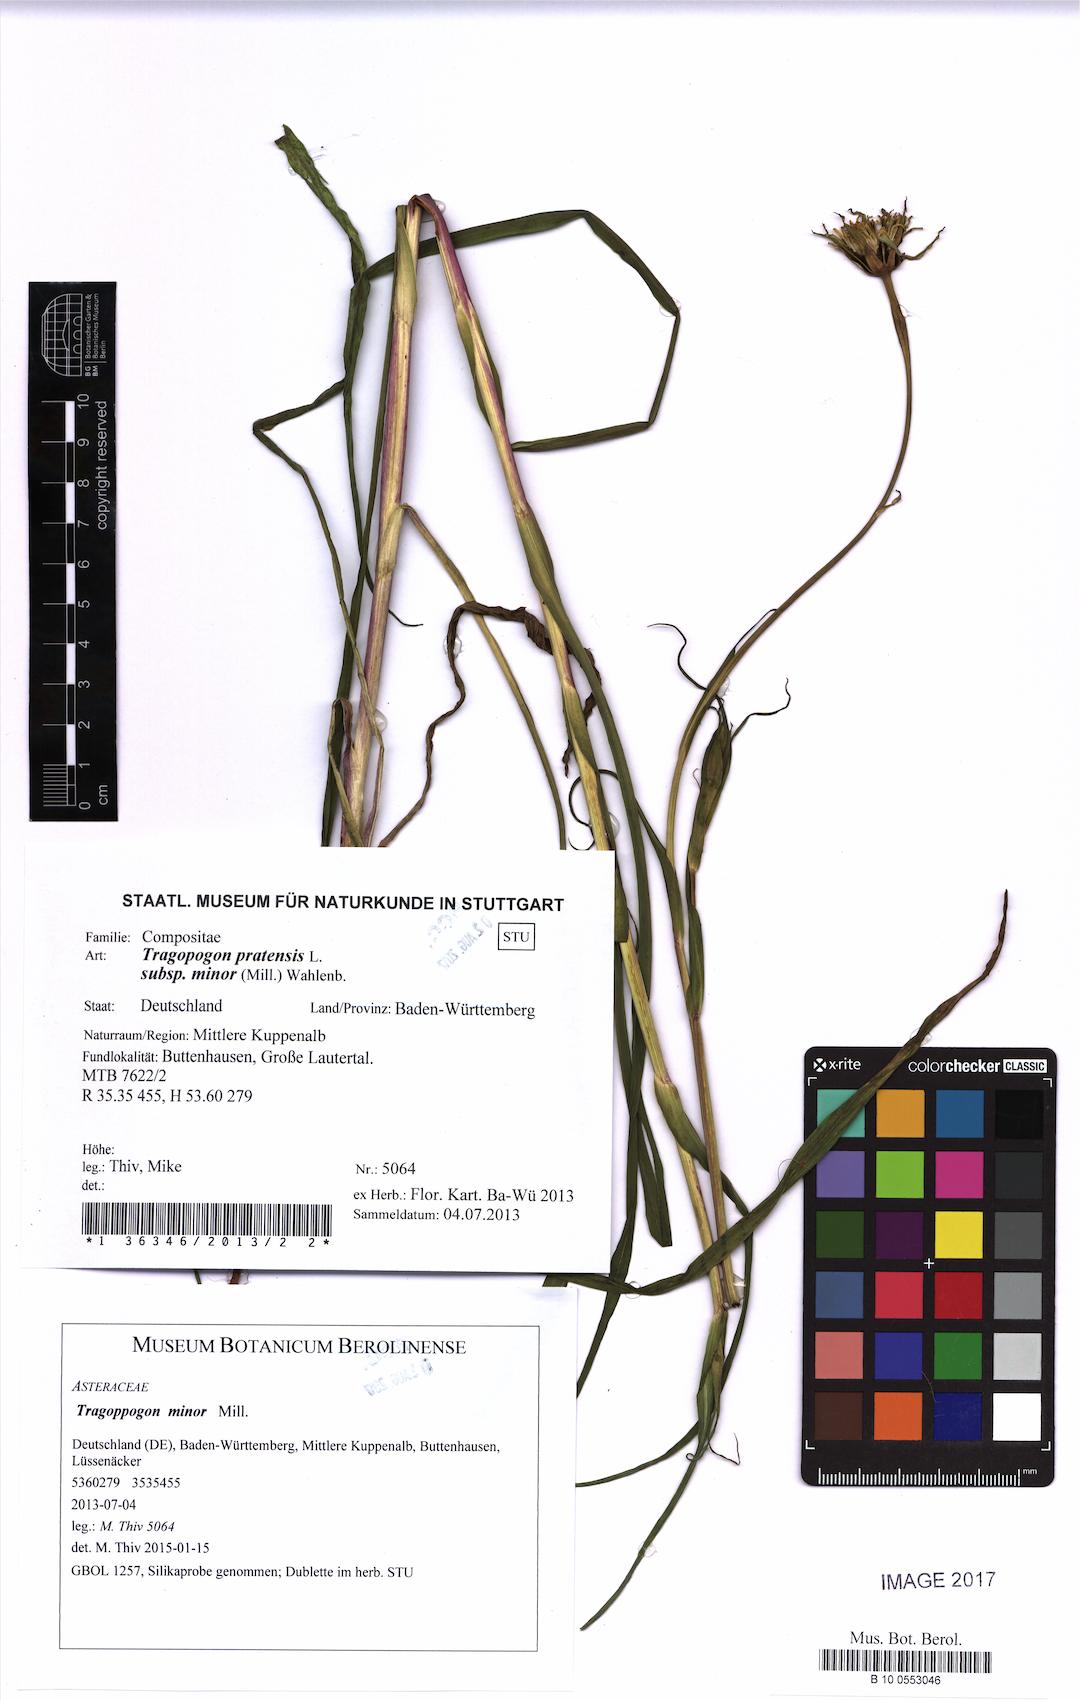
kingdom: Plantae
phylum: Tracheophyta
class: Magnoliopsida
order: Asterales
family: Asteraceae
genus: Tragopogon
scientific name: Tragopogon minor
